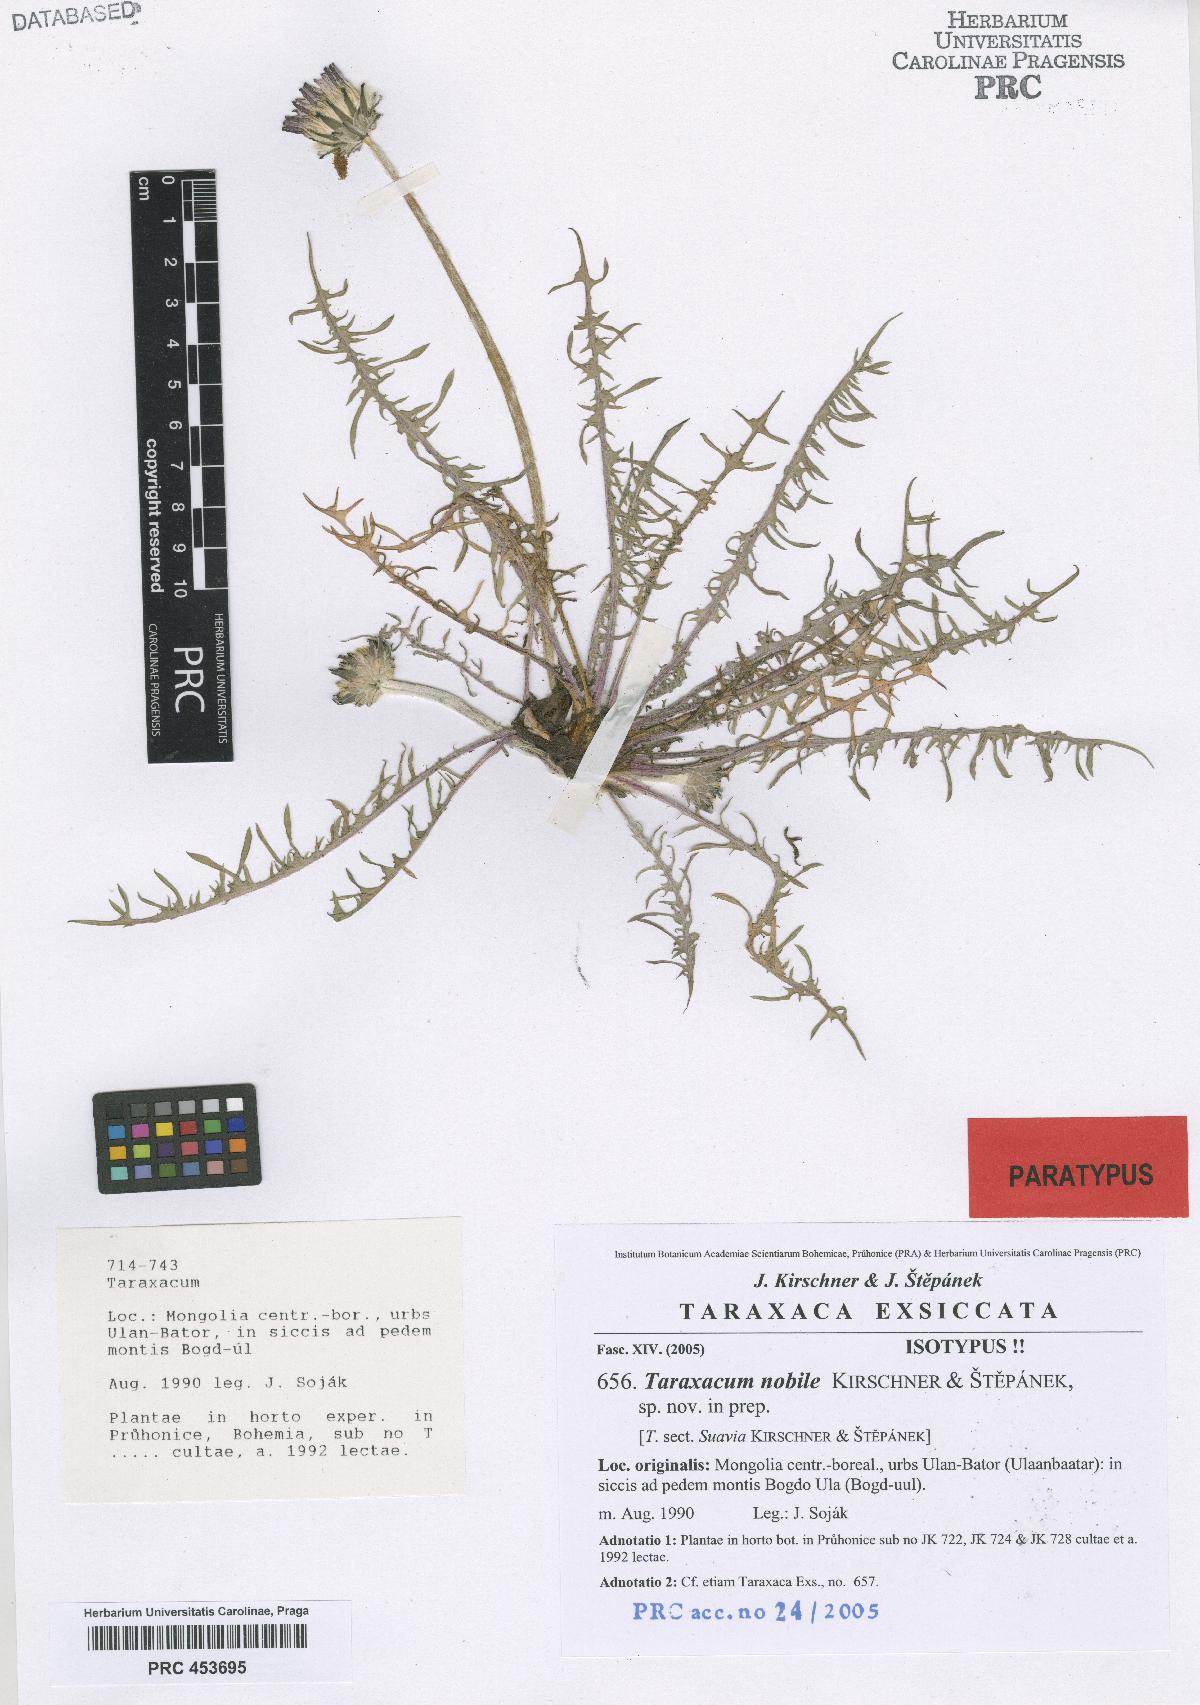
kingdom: Plantae
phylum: Tracheophyta
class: Magnoliopsida
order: Asterales
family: Asteraceae
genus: Taraxacum
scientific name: Taraxacum nobile
